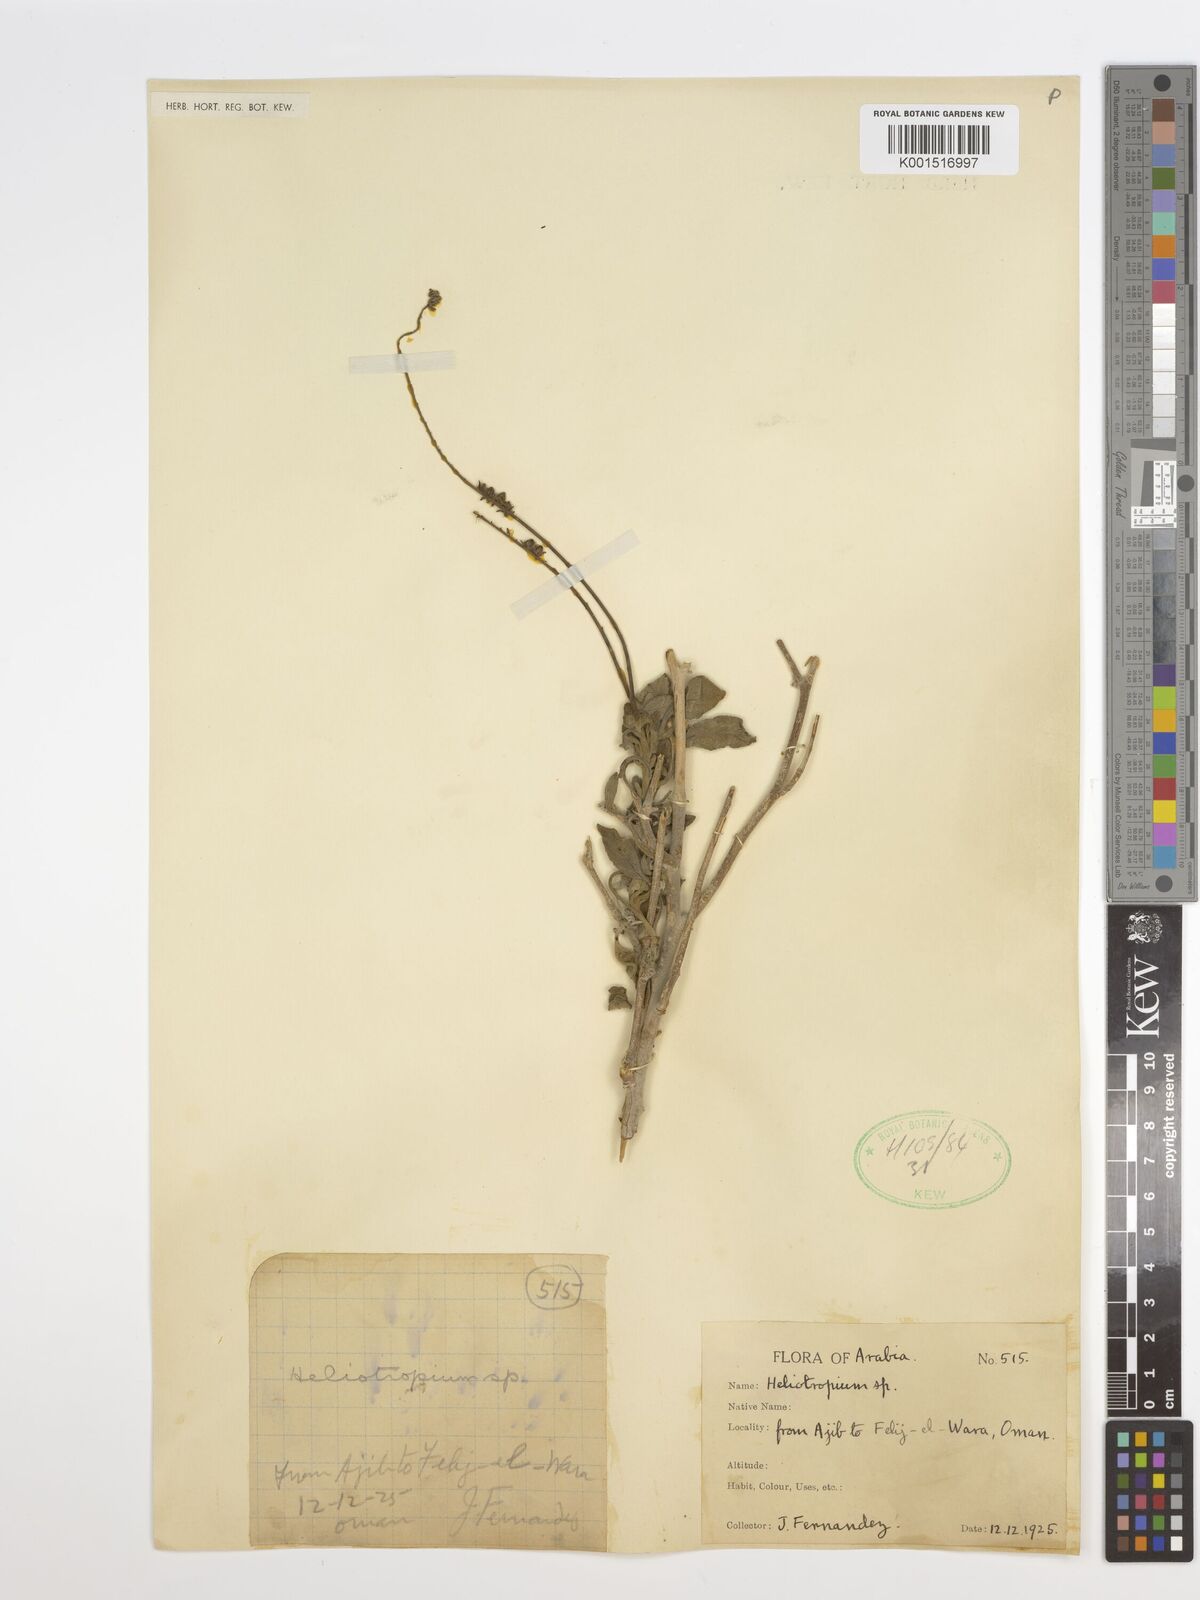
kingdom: Plantae
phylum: Tracheophyta
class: Magnoliopsida
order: Boraginales
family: Heliotropiaceae
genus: Heliotropium
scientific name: Heliotropium
